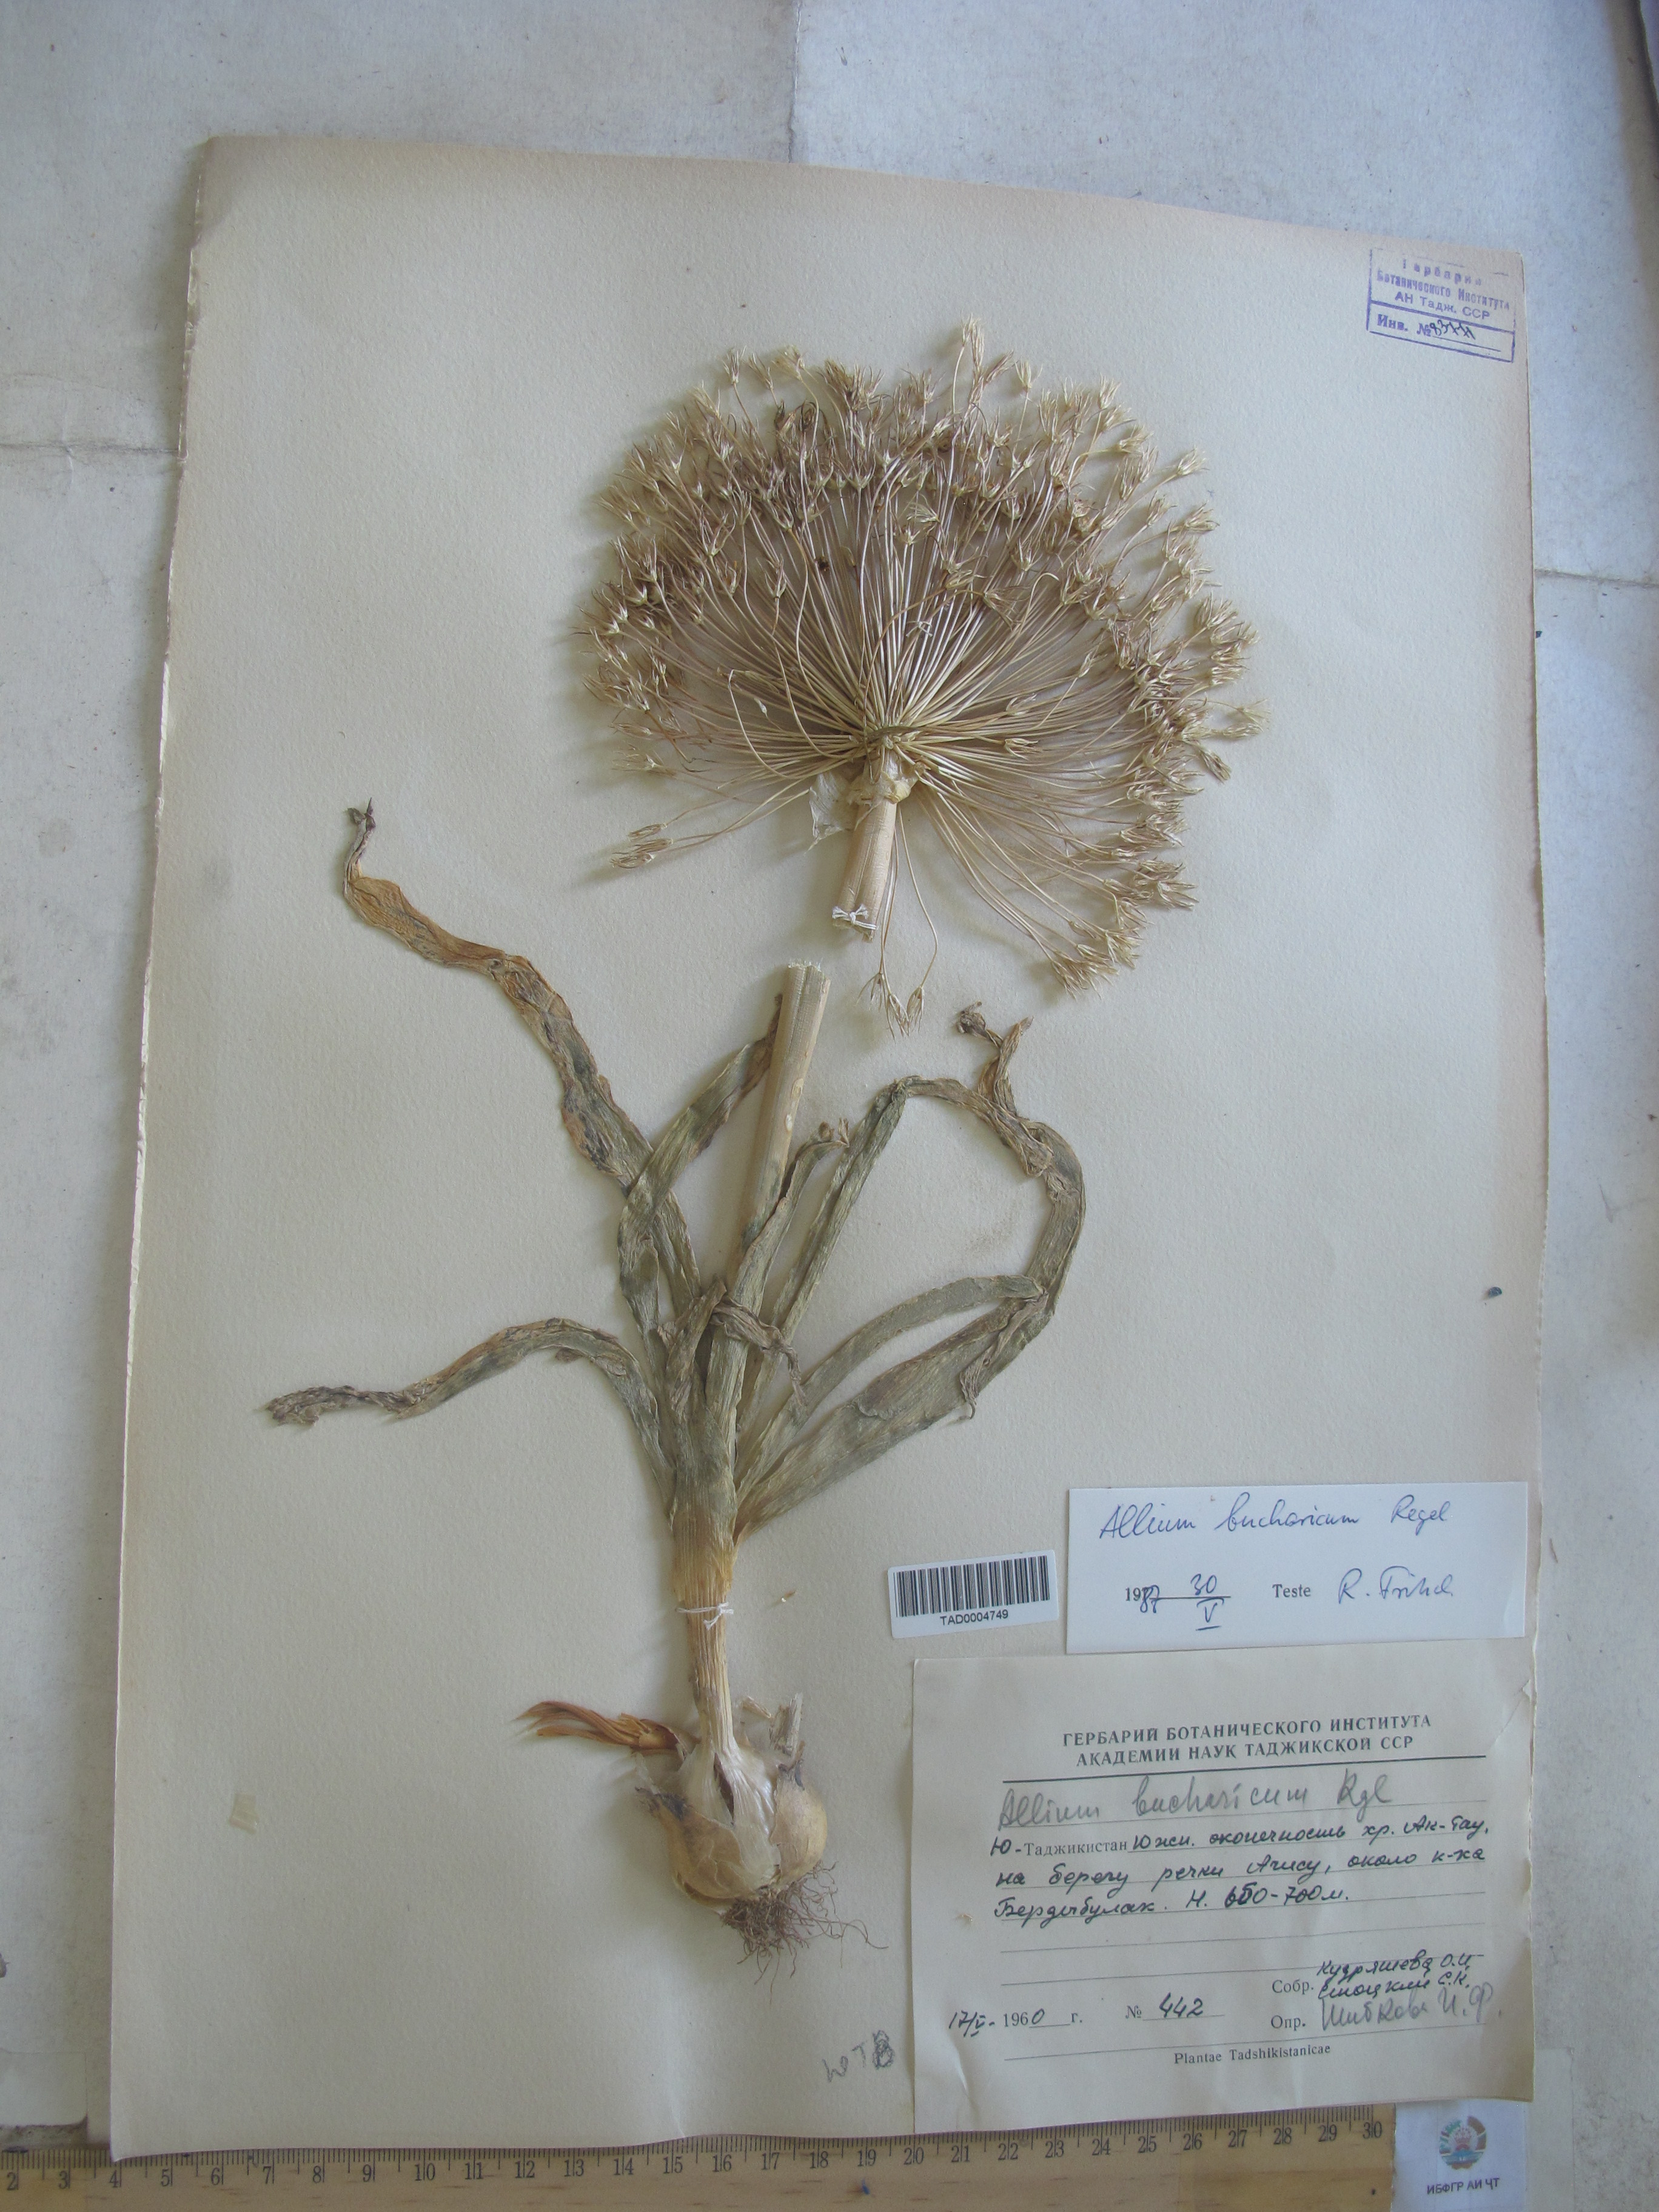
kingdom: Plantae
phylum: Tracheophyta
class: Liliopsida
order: Asparagales
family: Amaryllidaceae
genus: Allium
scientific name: Allium bucharicum
